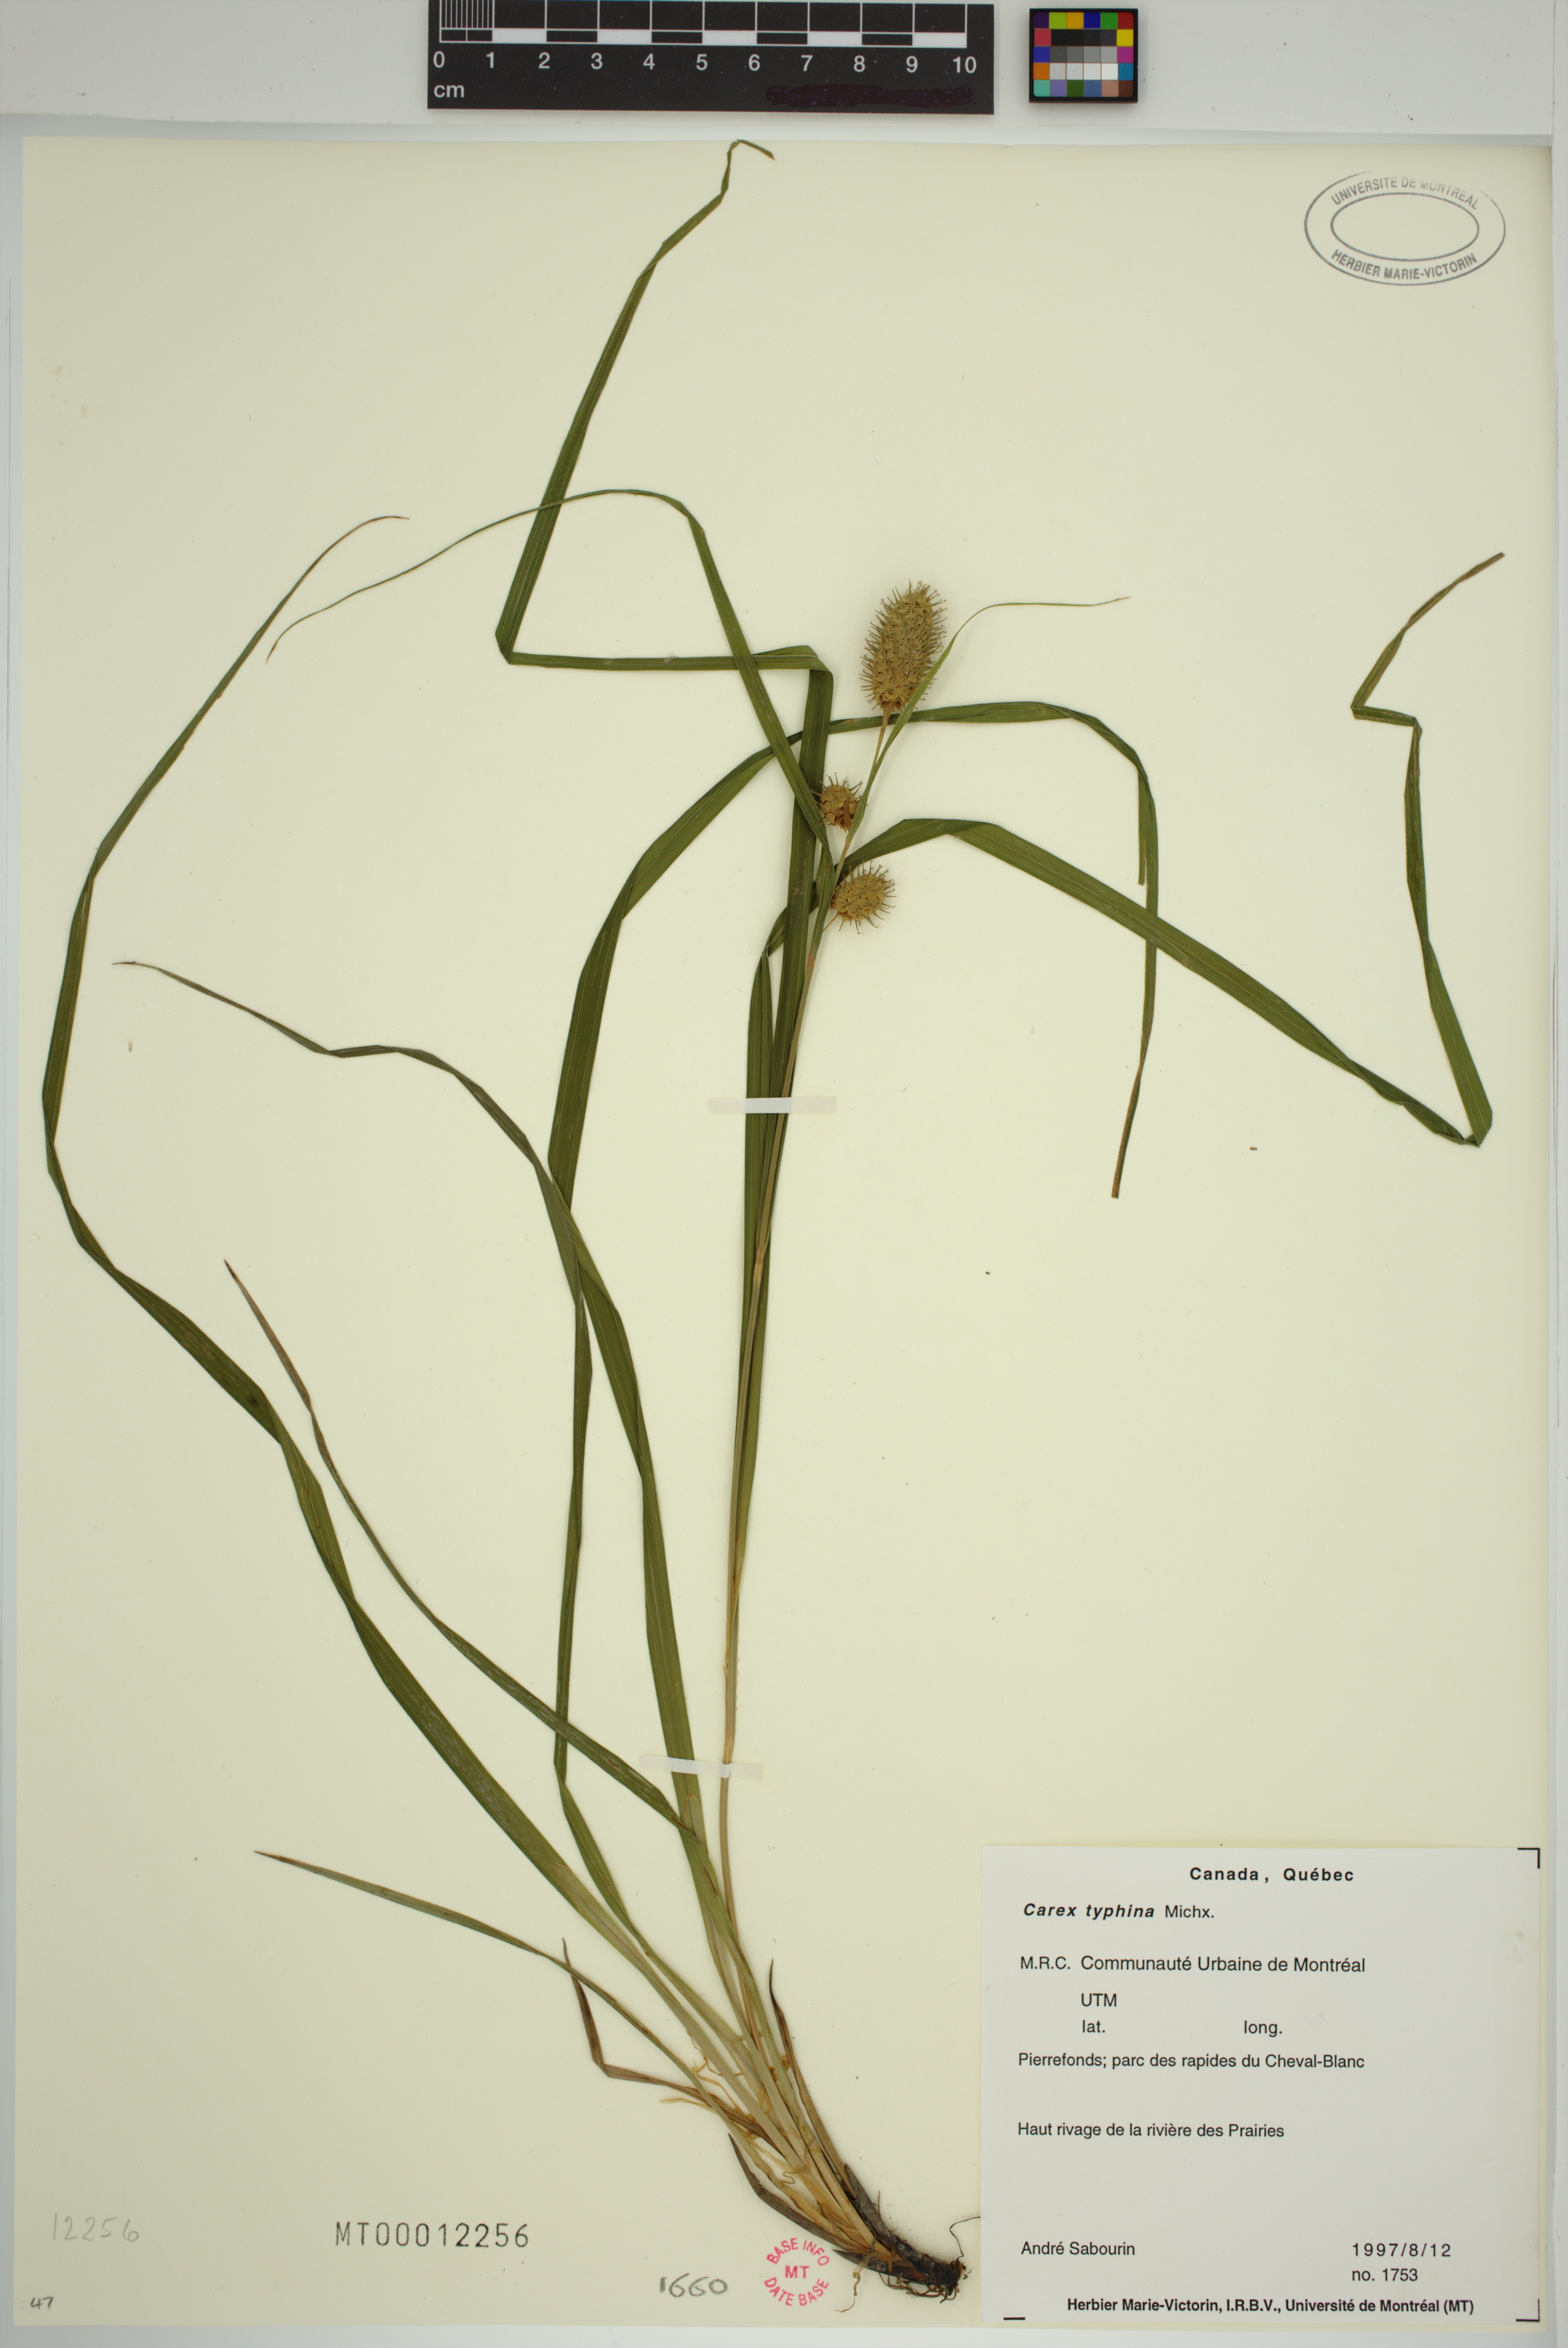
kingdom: Plantae
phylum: Tracheophyta
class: Liliopsida
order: Poales
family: Cyperaceae
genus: Carex
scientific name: Carex typhina
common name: Cattail sedge
